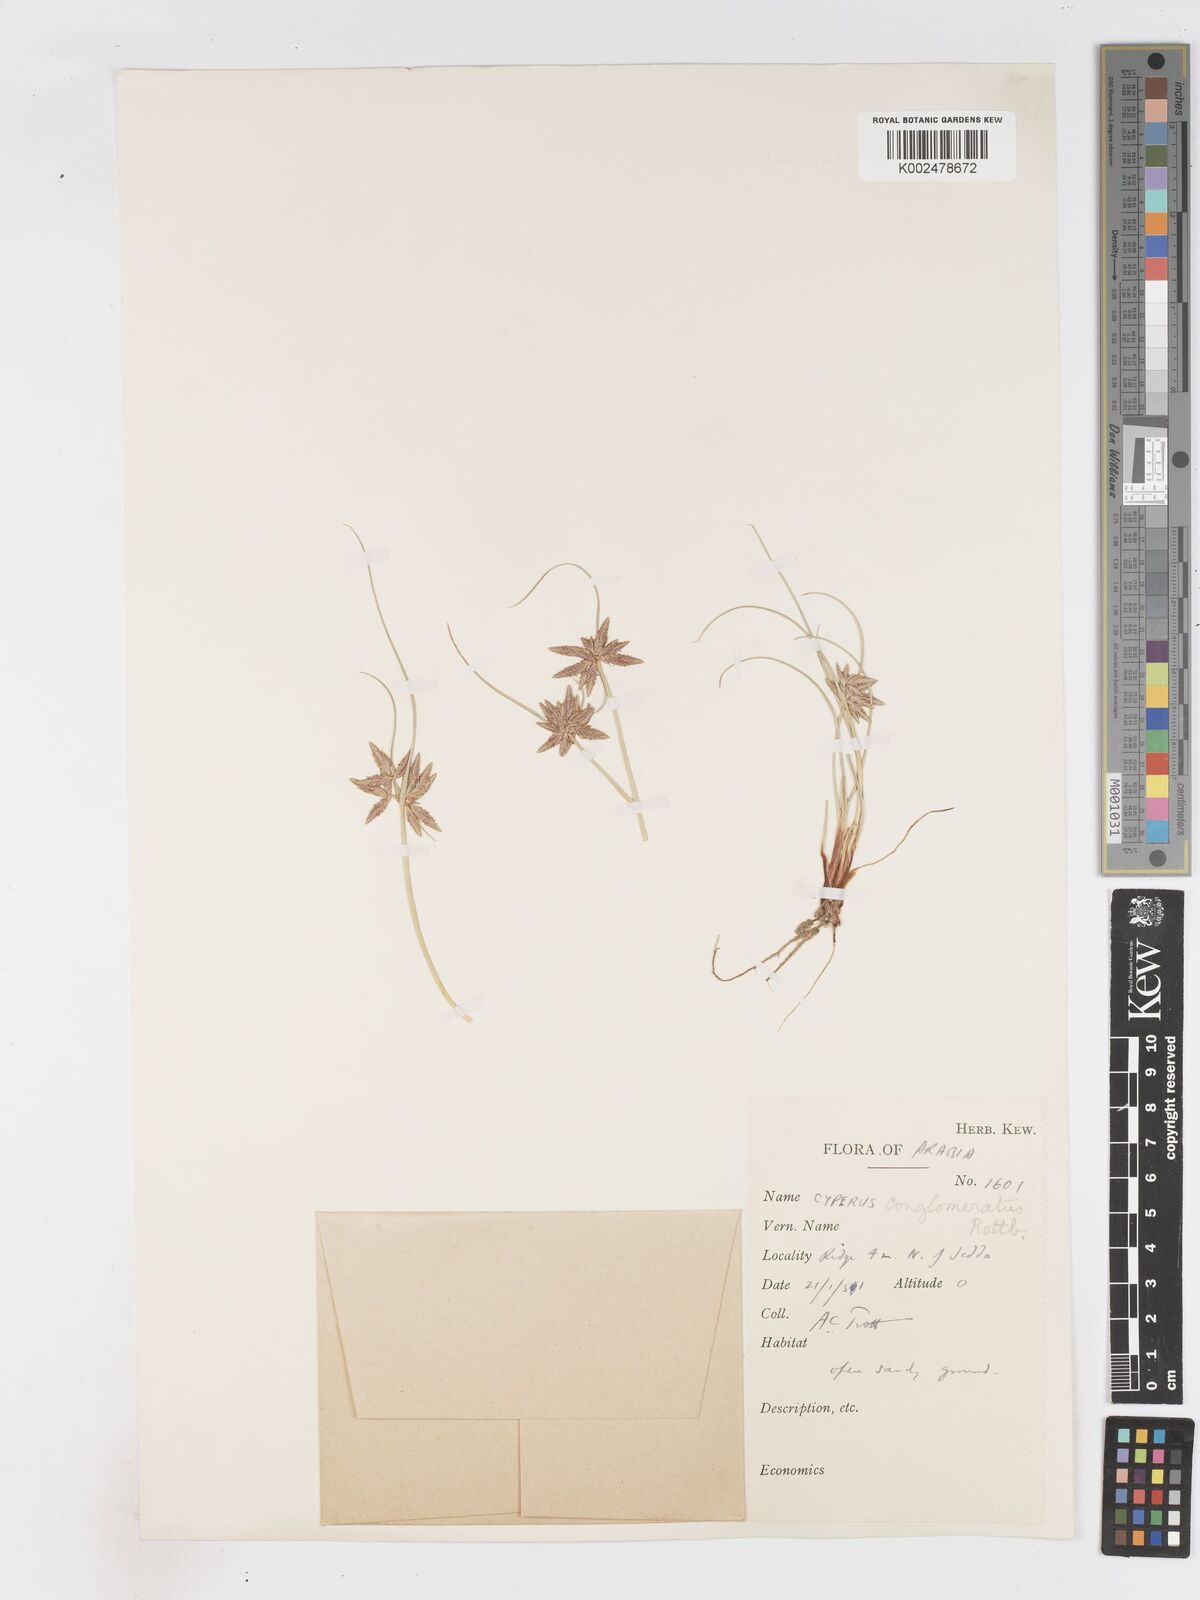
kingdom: Plantae
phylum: Tracheophyta
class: Liliopsida
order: Poales
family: Cyperaceae
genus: Cyperus
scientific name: Cyperus conglomeratus
